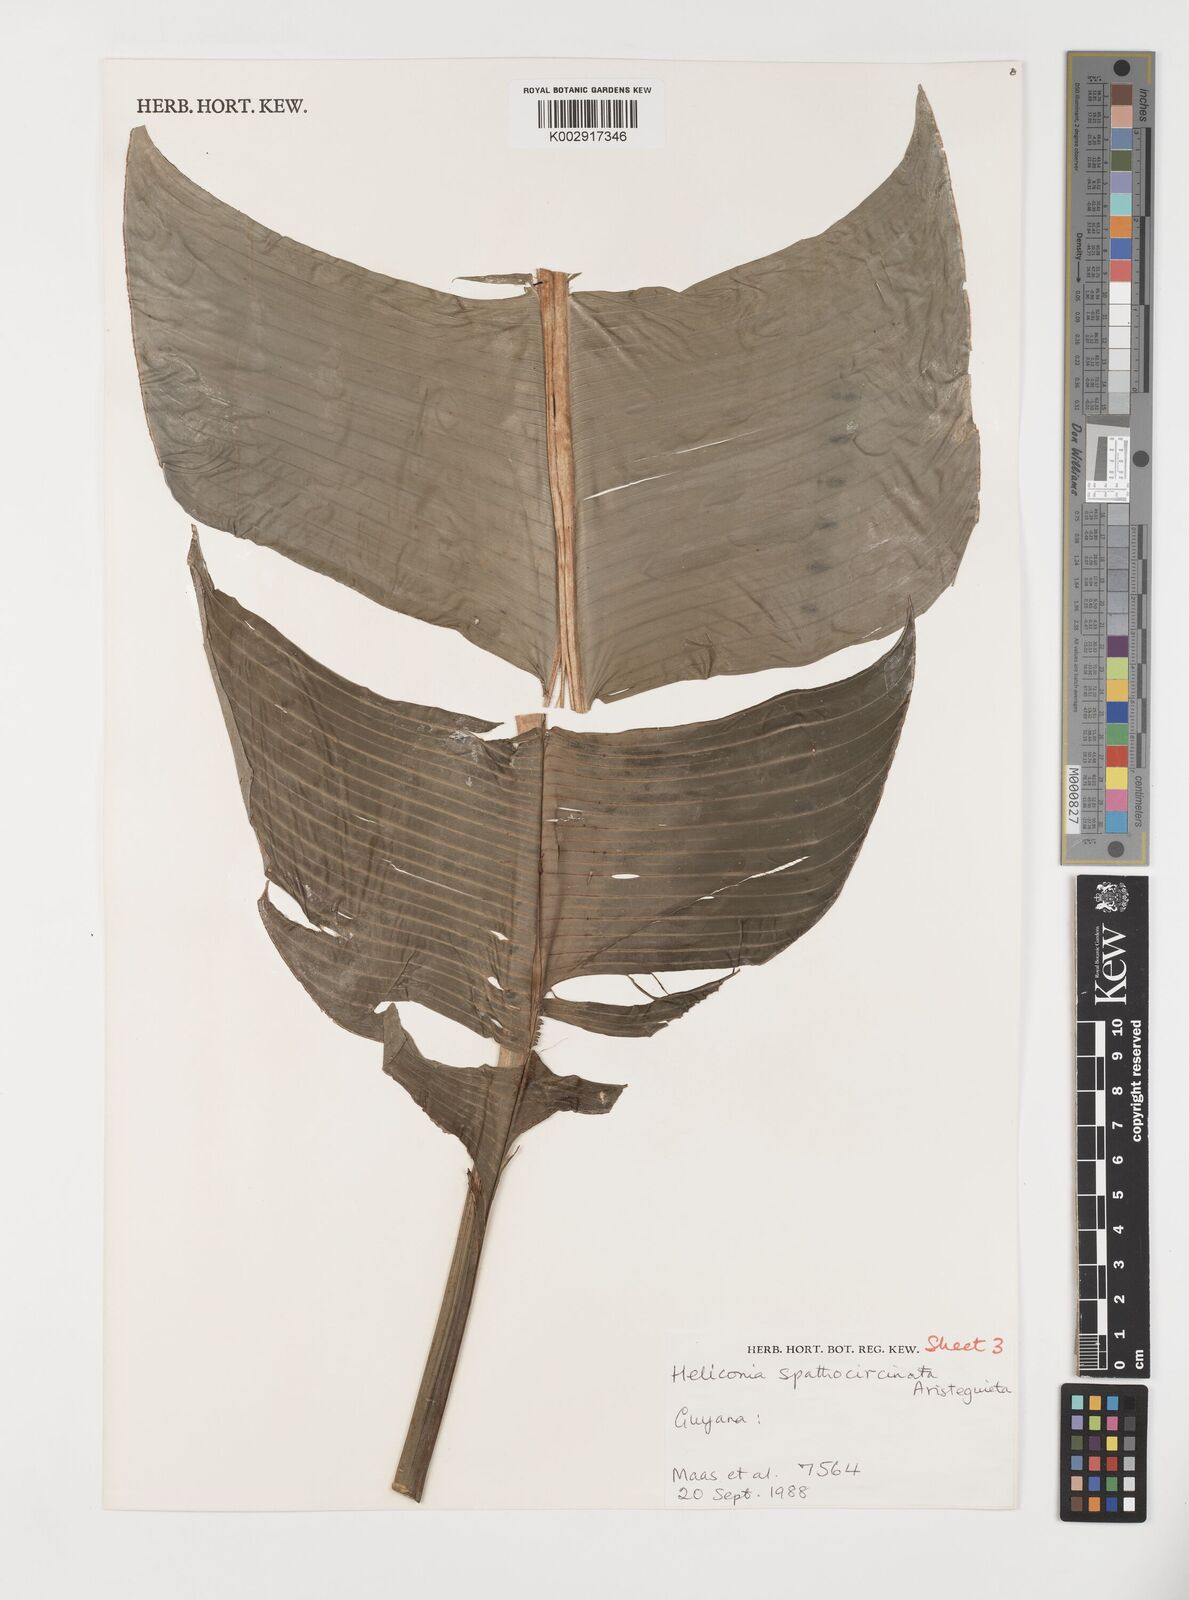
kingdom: Plantae
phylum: Tracheophyta
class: Liliopsida
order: Zingiberales
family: Heliconiaceae
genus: Heliconia
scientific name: Heliconia spathocircinata
